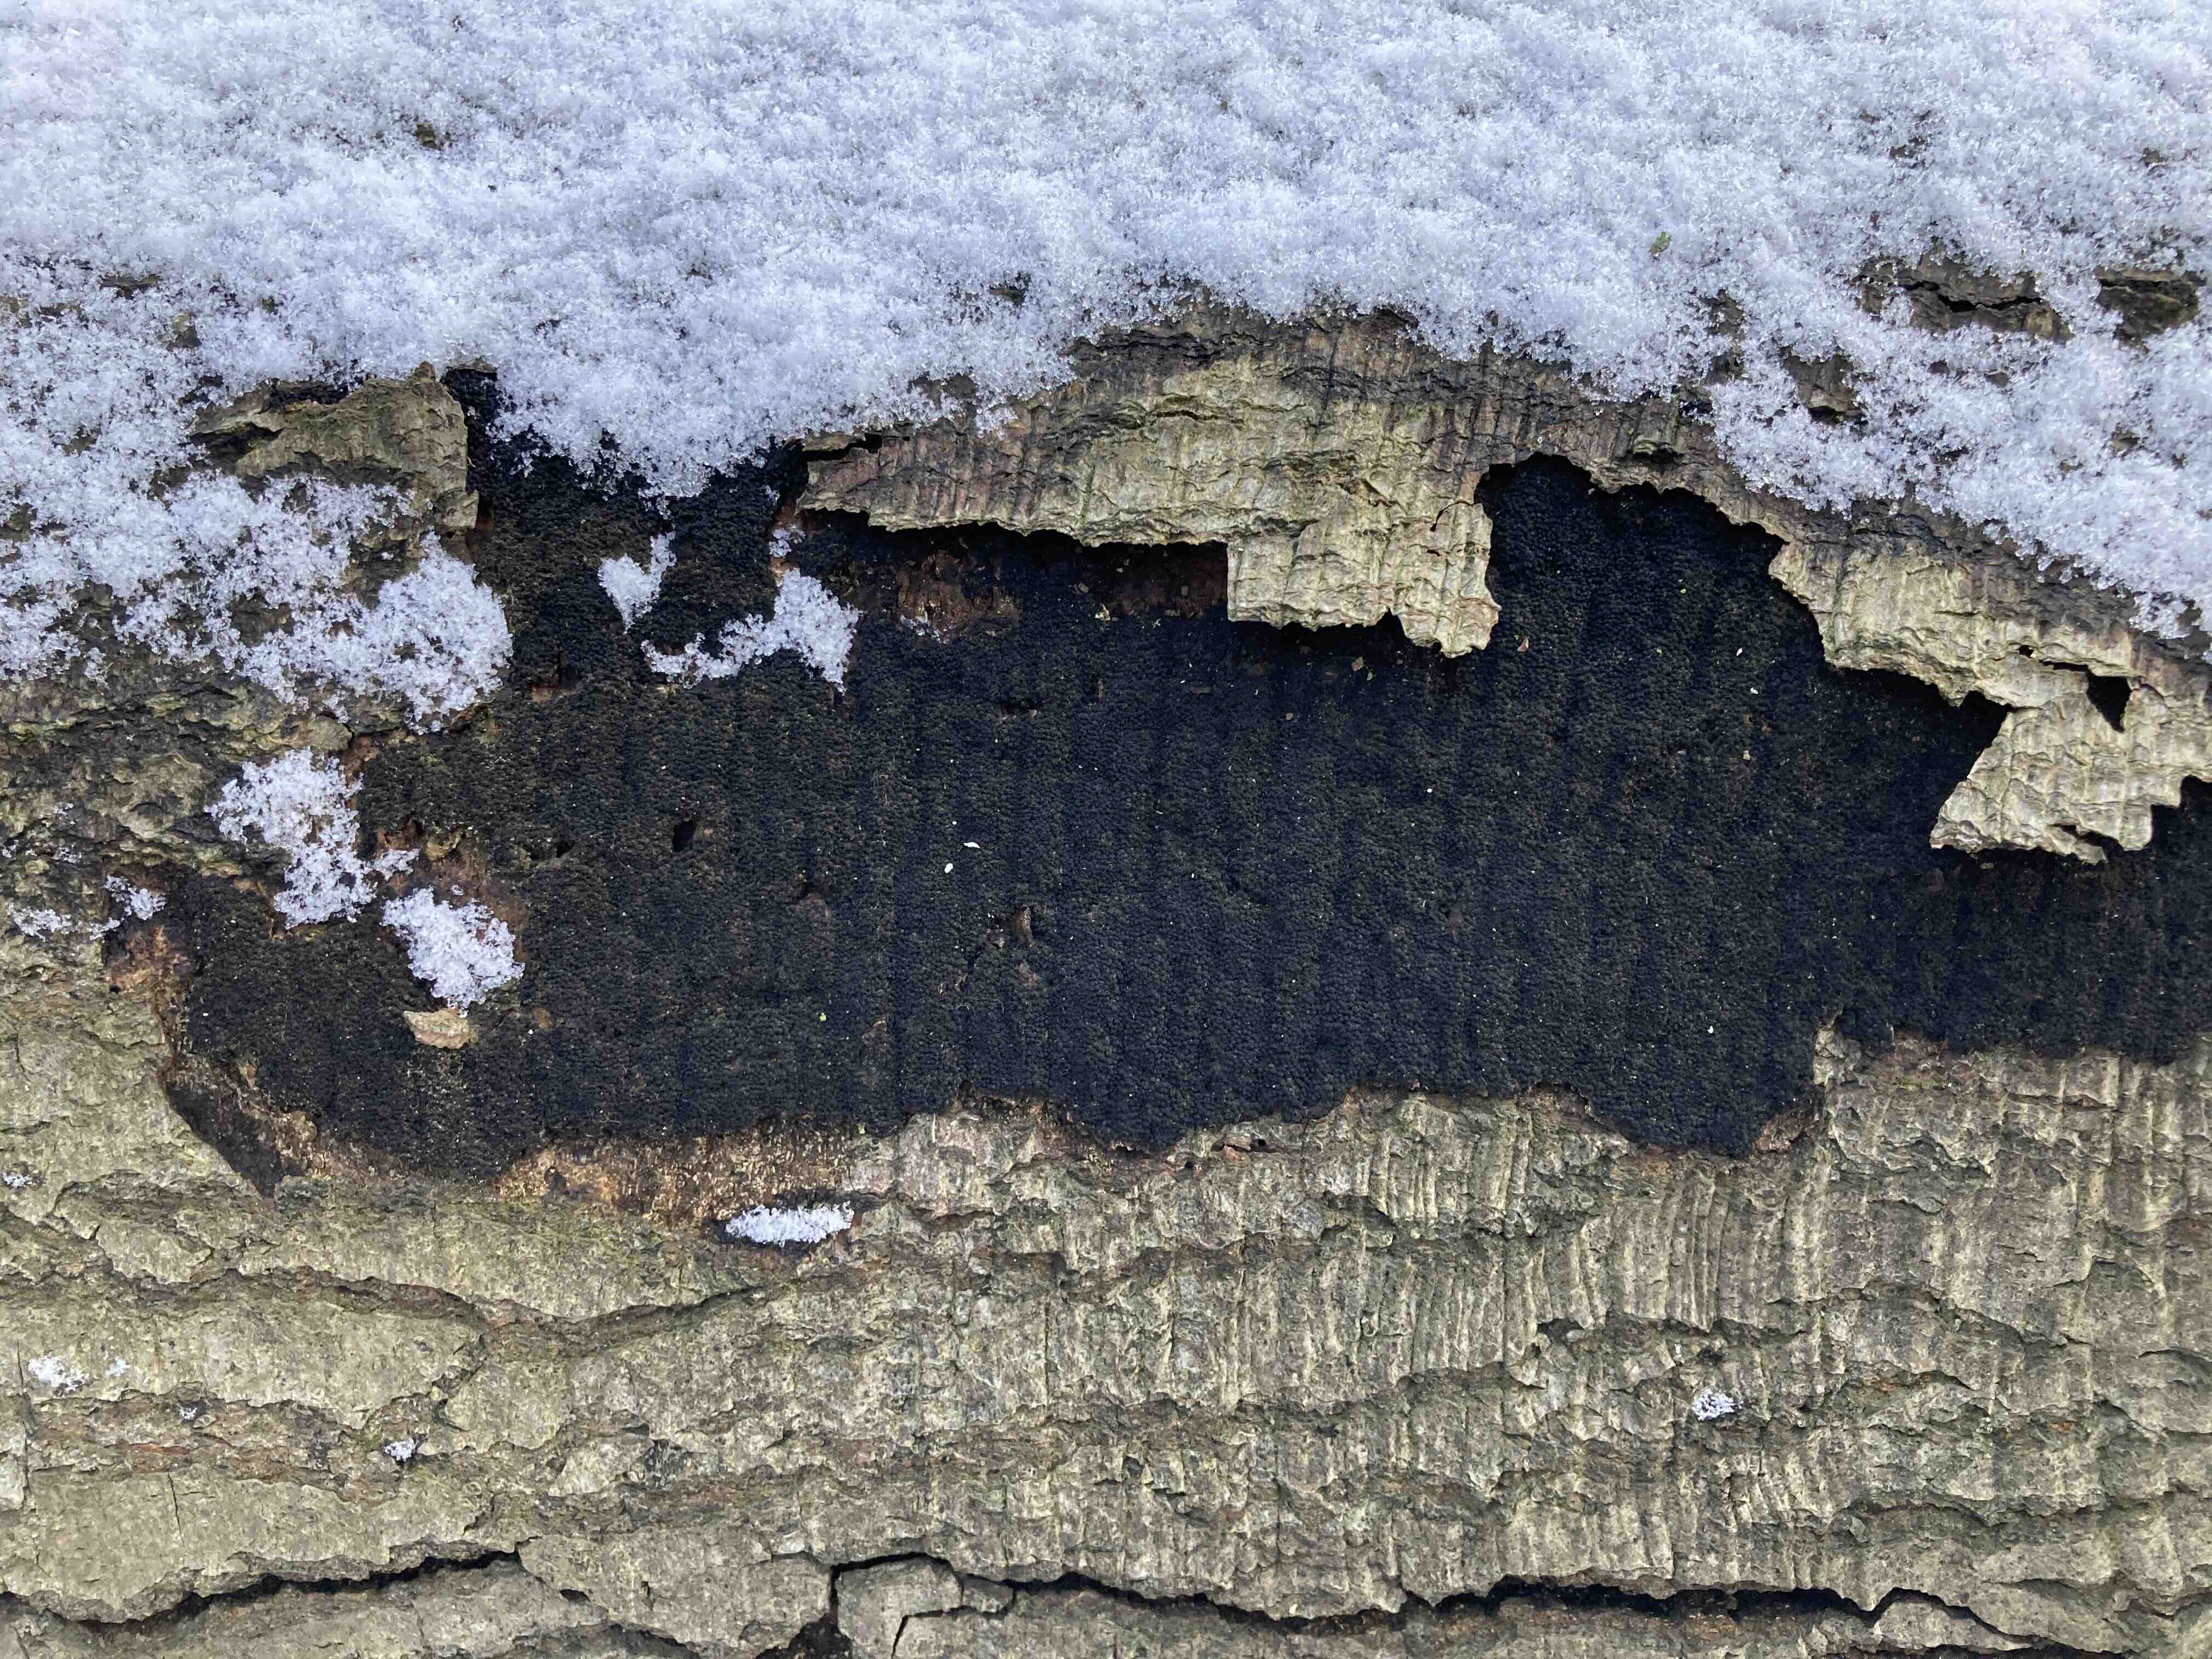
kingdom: Fungi
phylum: Ascomycota
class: Sordariomycetes
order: Xylariales
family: Diatrypaceae
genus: Eutypa
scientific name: Eutypa spinosa
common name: grov kulskorpe
